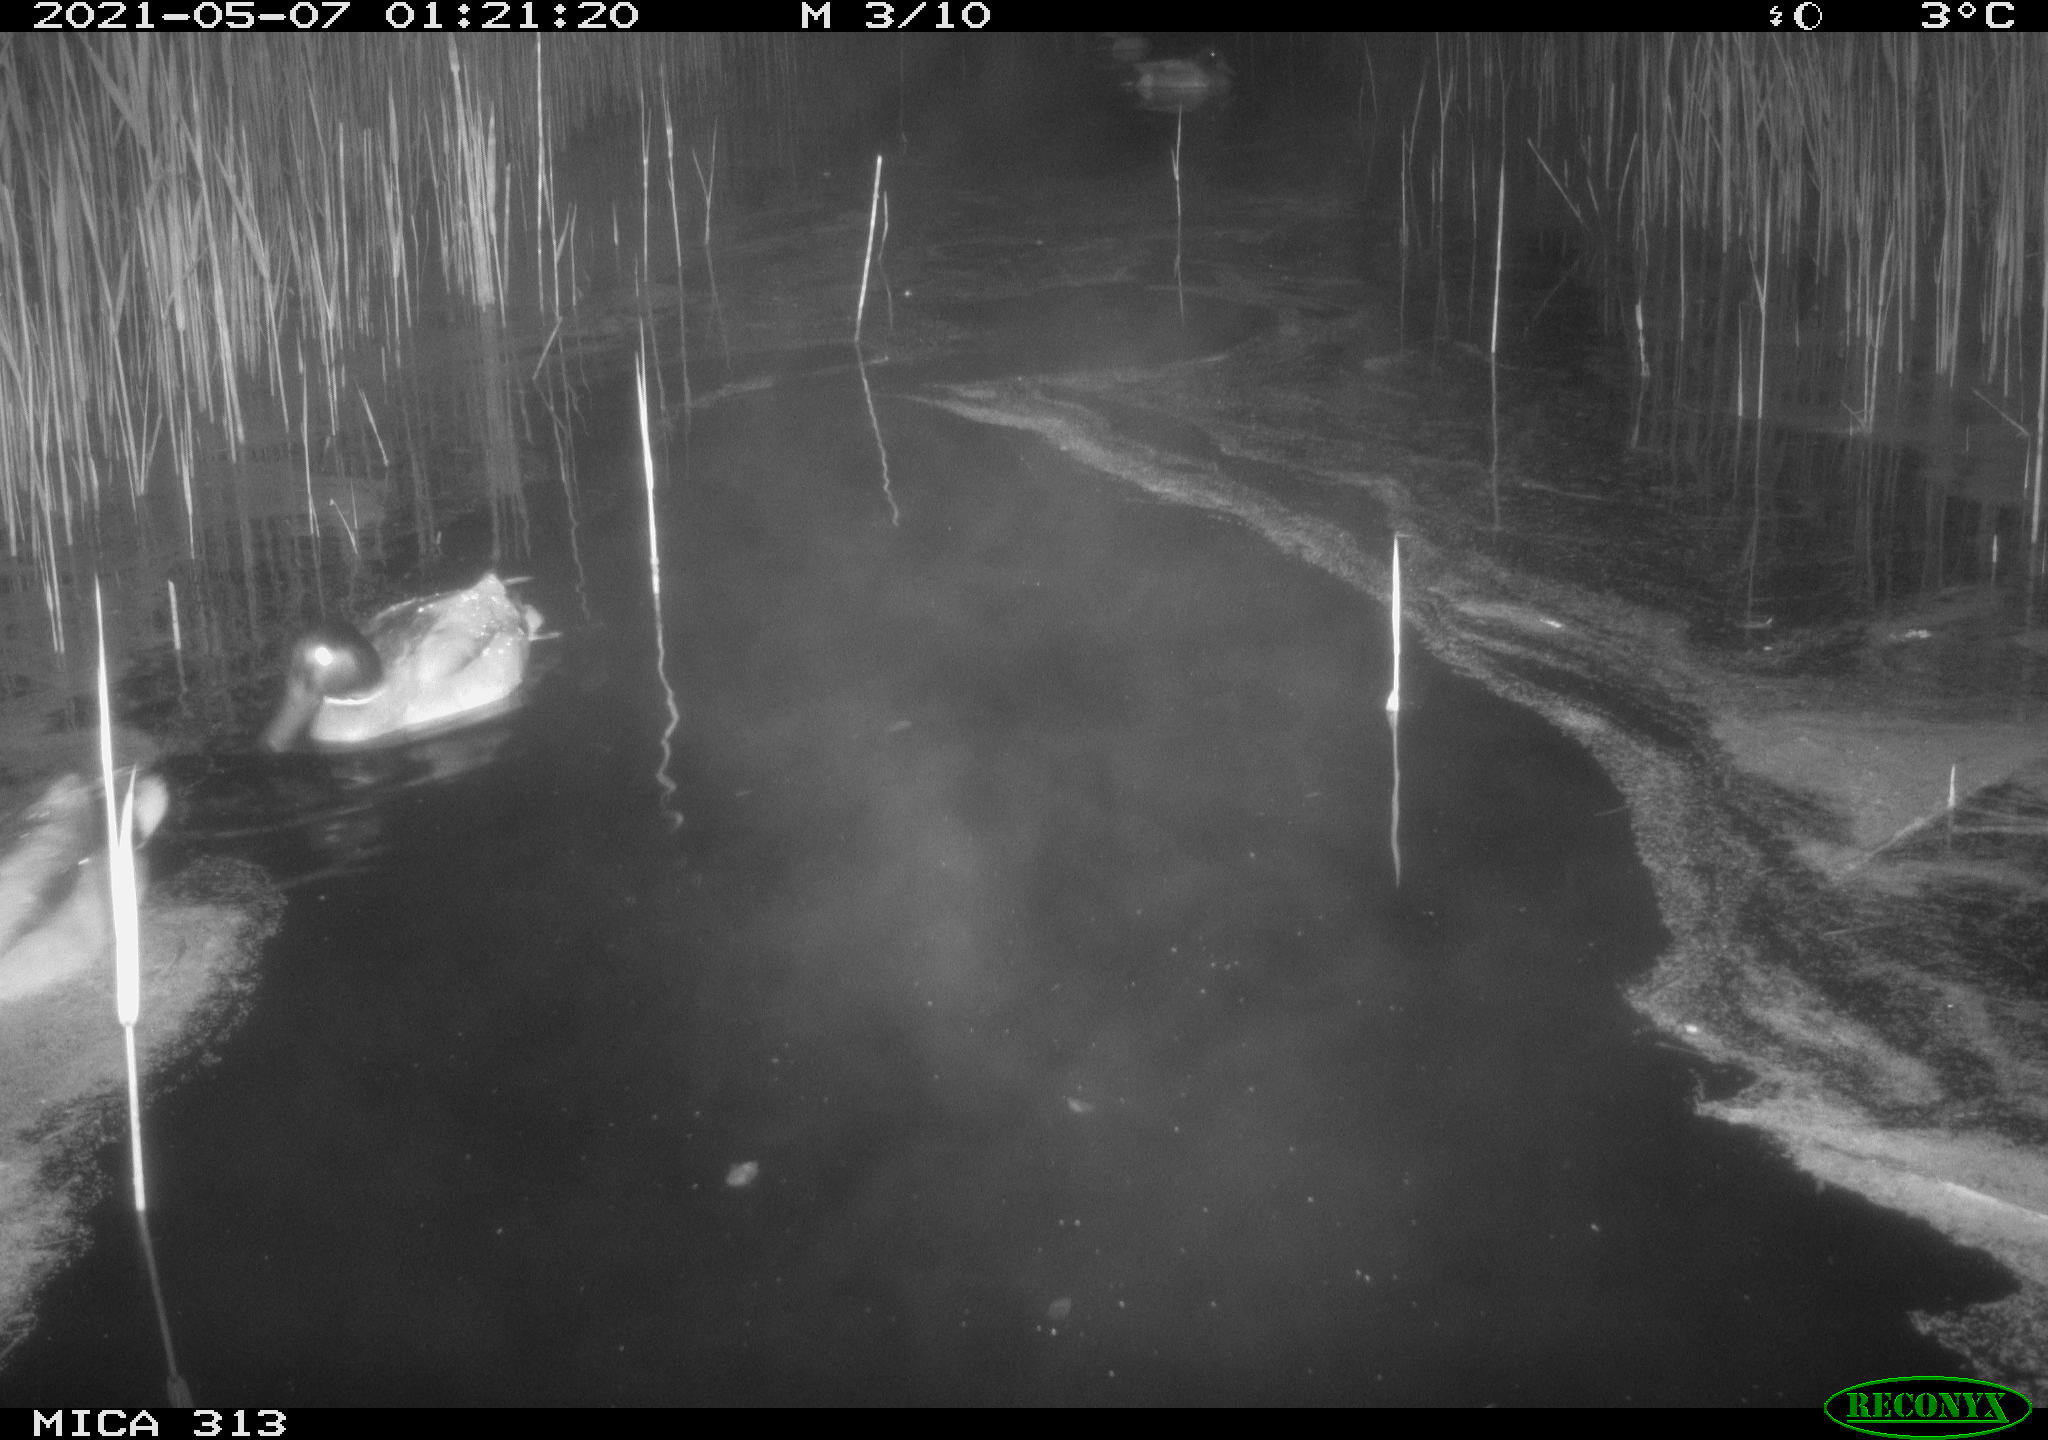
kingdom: Animalia
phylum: Chordata
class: Aves
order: Anseriformes
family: Anatidae
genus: Anas
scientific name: Anas platyrhynchos
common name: Mallard
